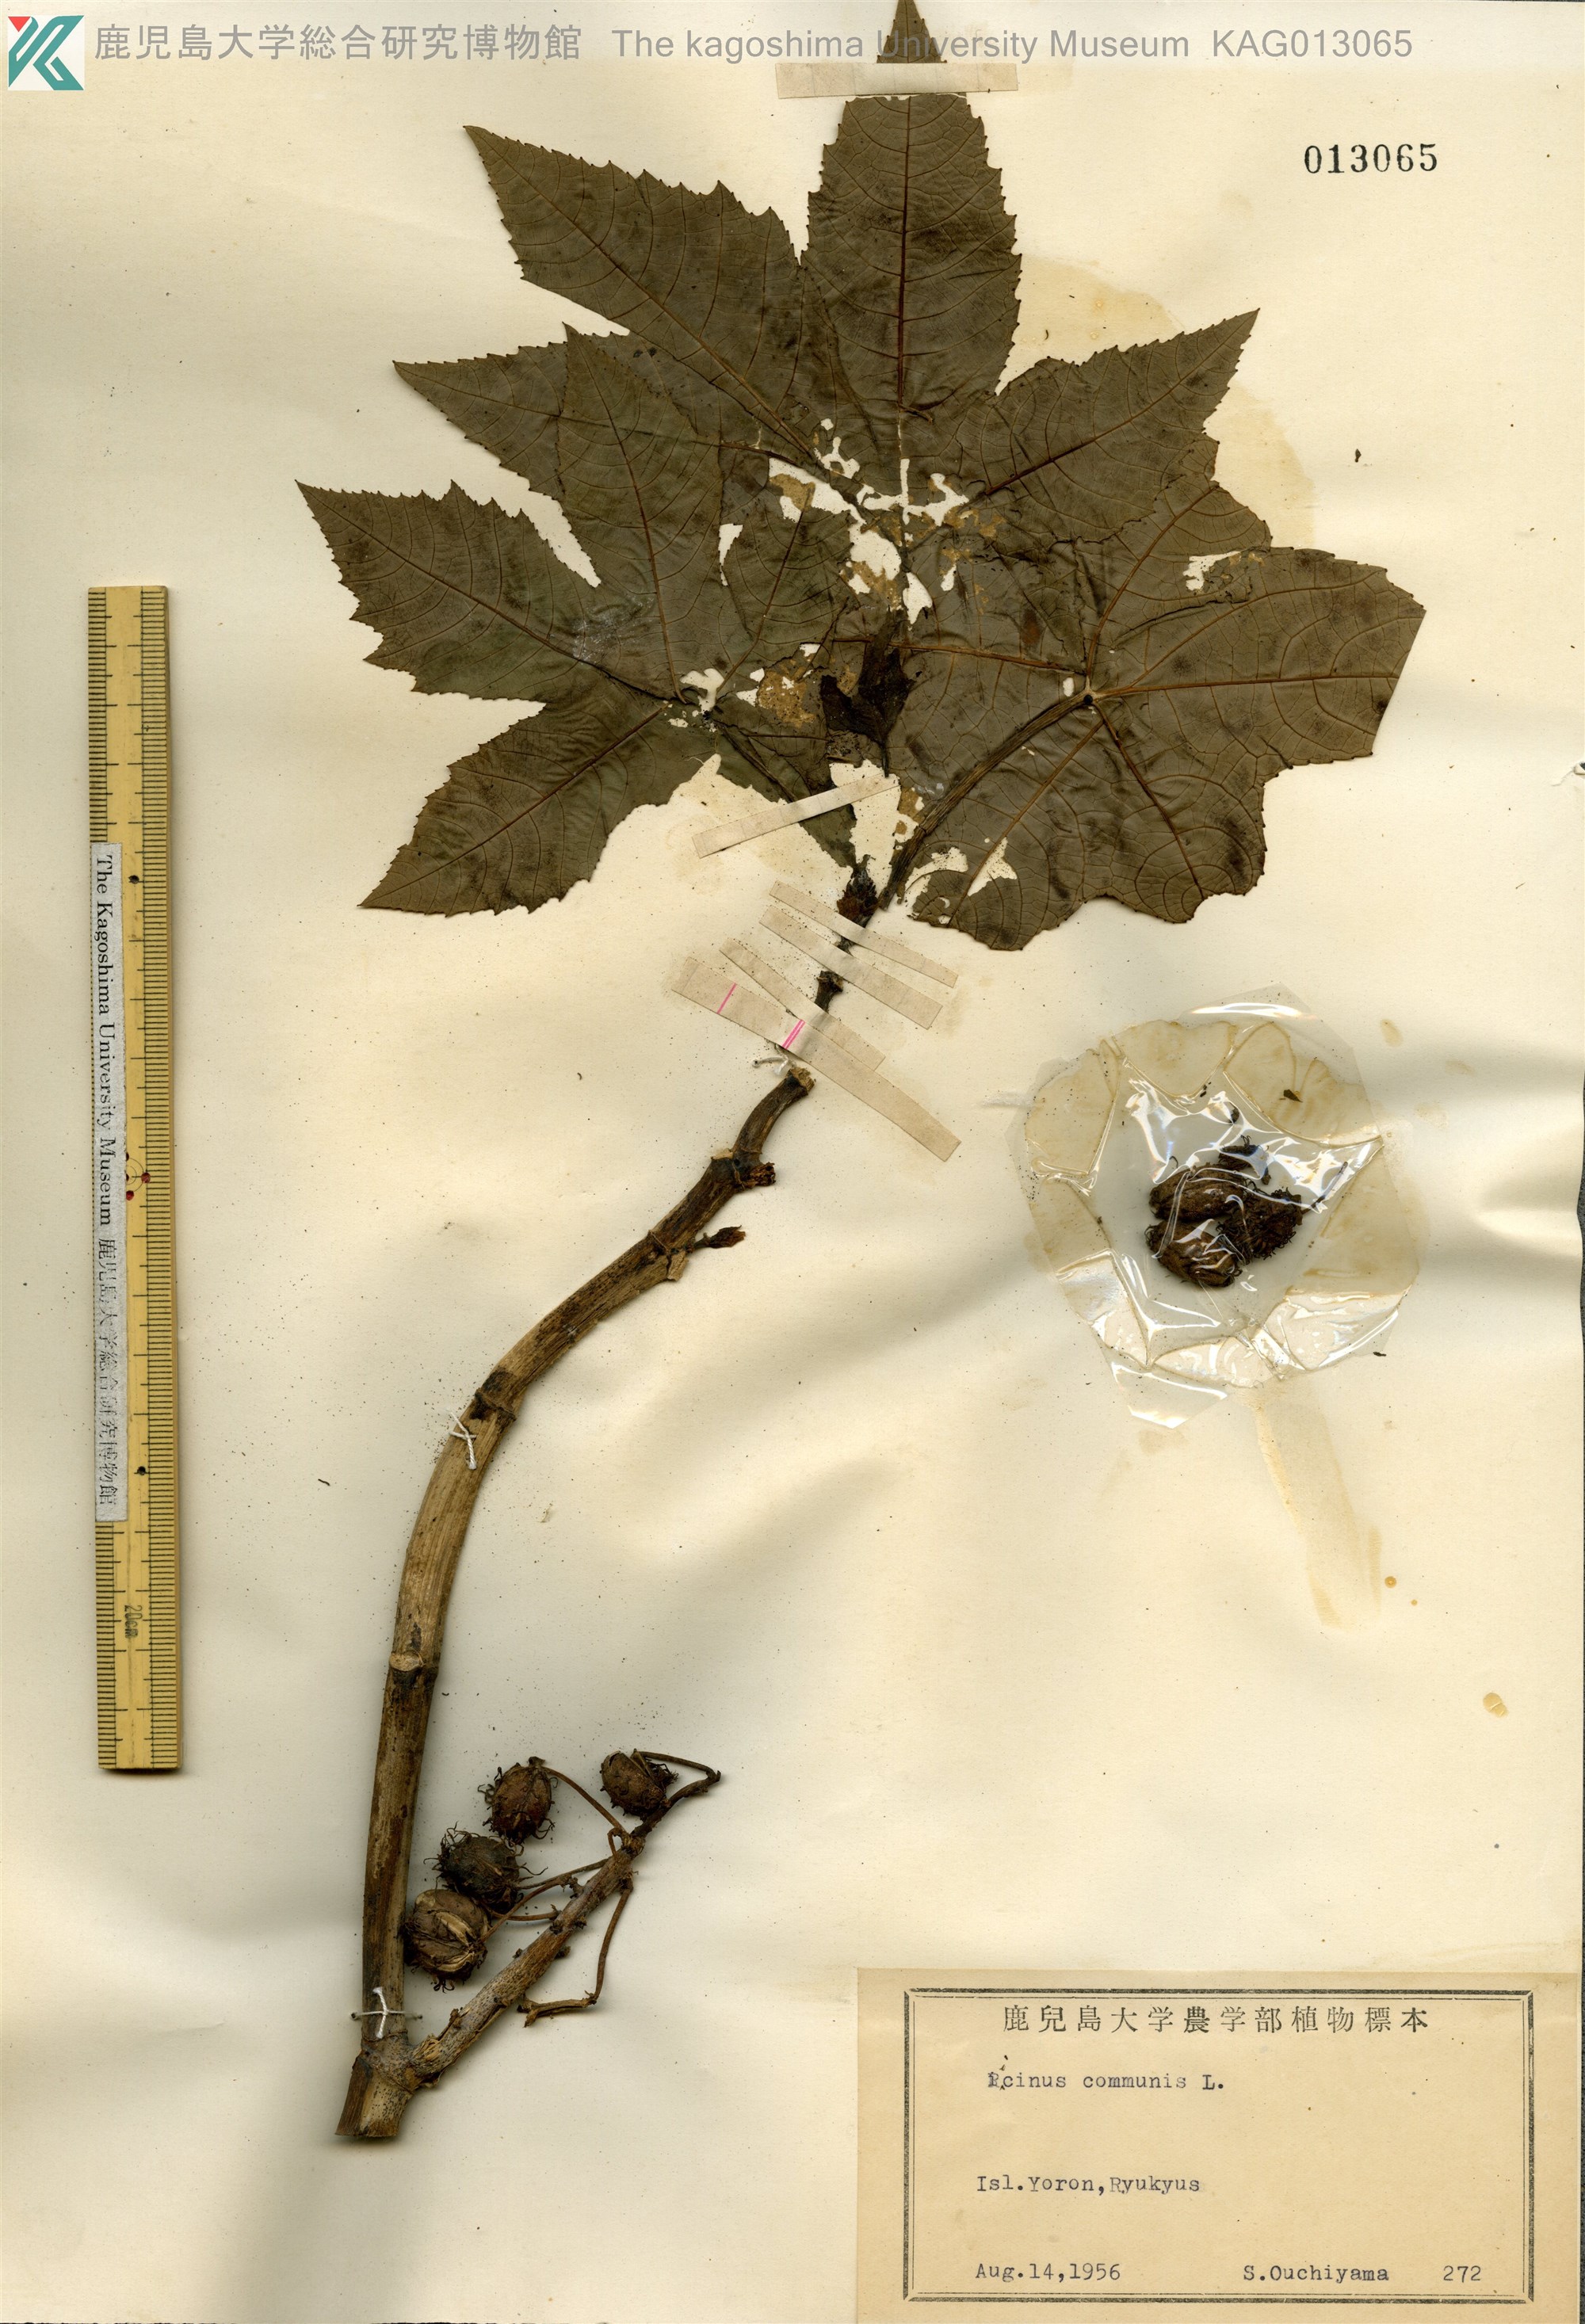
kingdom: Plantae
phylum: Tracheophyta
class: Magnoliopsida
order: Malpighiales
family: Euphorbiaceae
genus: Ricinus
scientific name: Ricinus communis
